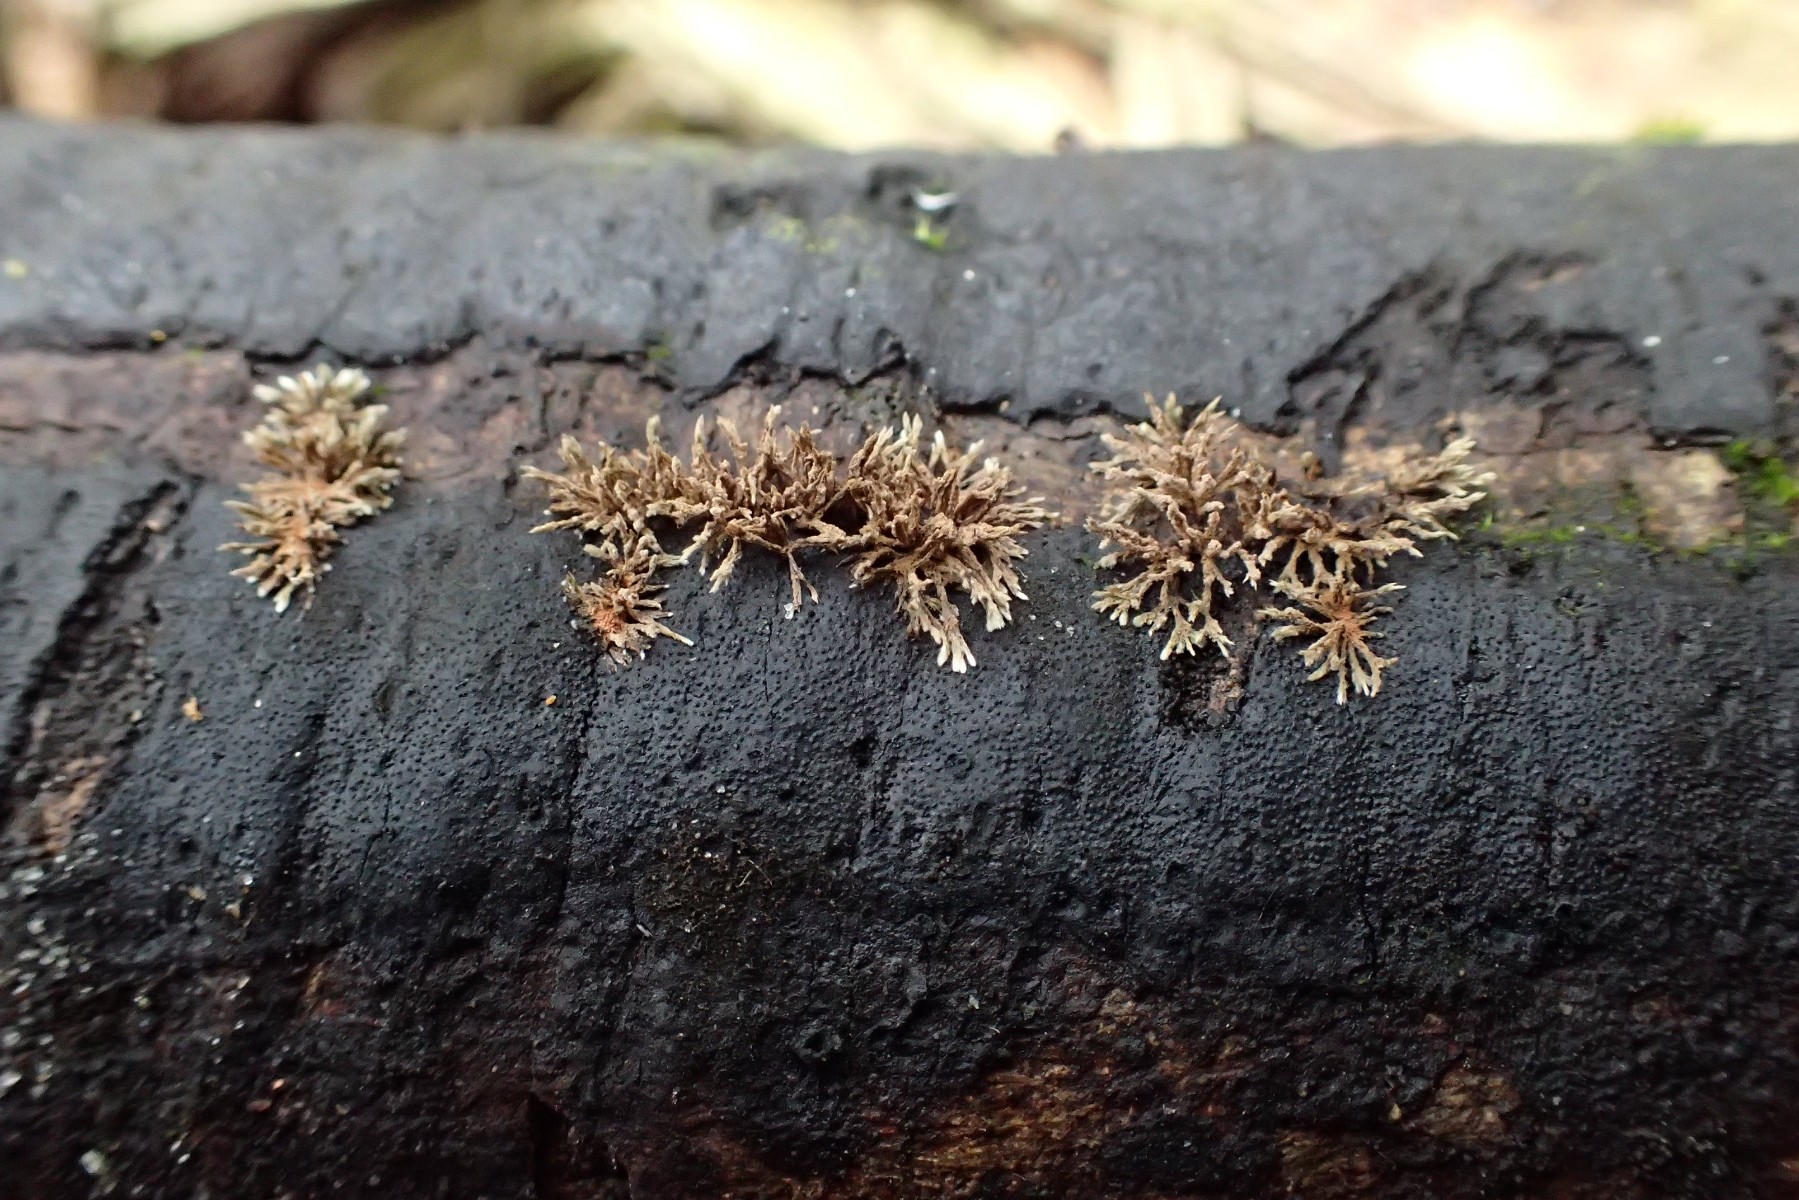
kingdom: Fungi
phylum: Ascomycota
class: Sordariomycetes
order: Xylariales
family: Hypoxylaceae
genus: Hypoxylon
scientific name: Hypoxylon howeanum
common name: halvkugleformet kulbær
